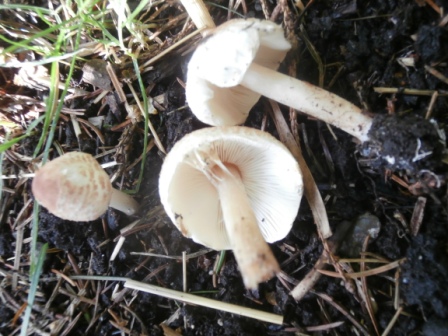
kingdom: Fungi
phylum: Basidiomycota
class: Agaricomycetes
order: Agaricales
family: Agaricaceae
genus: Lepiota
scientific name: Lepiota cristata
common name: stinkende parasolhat
